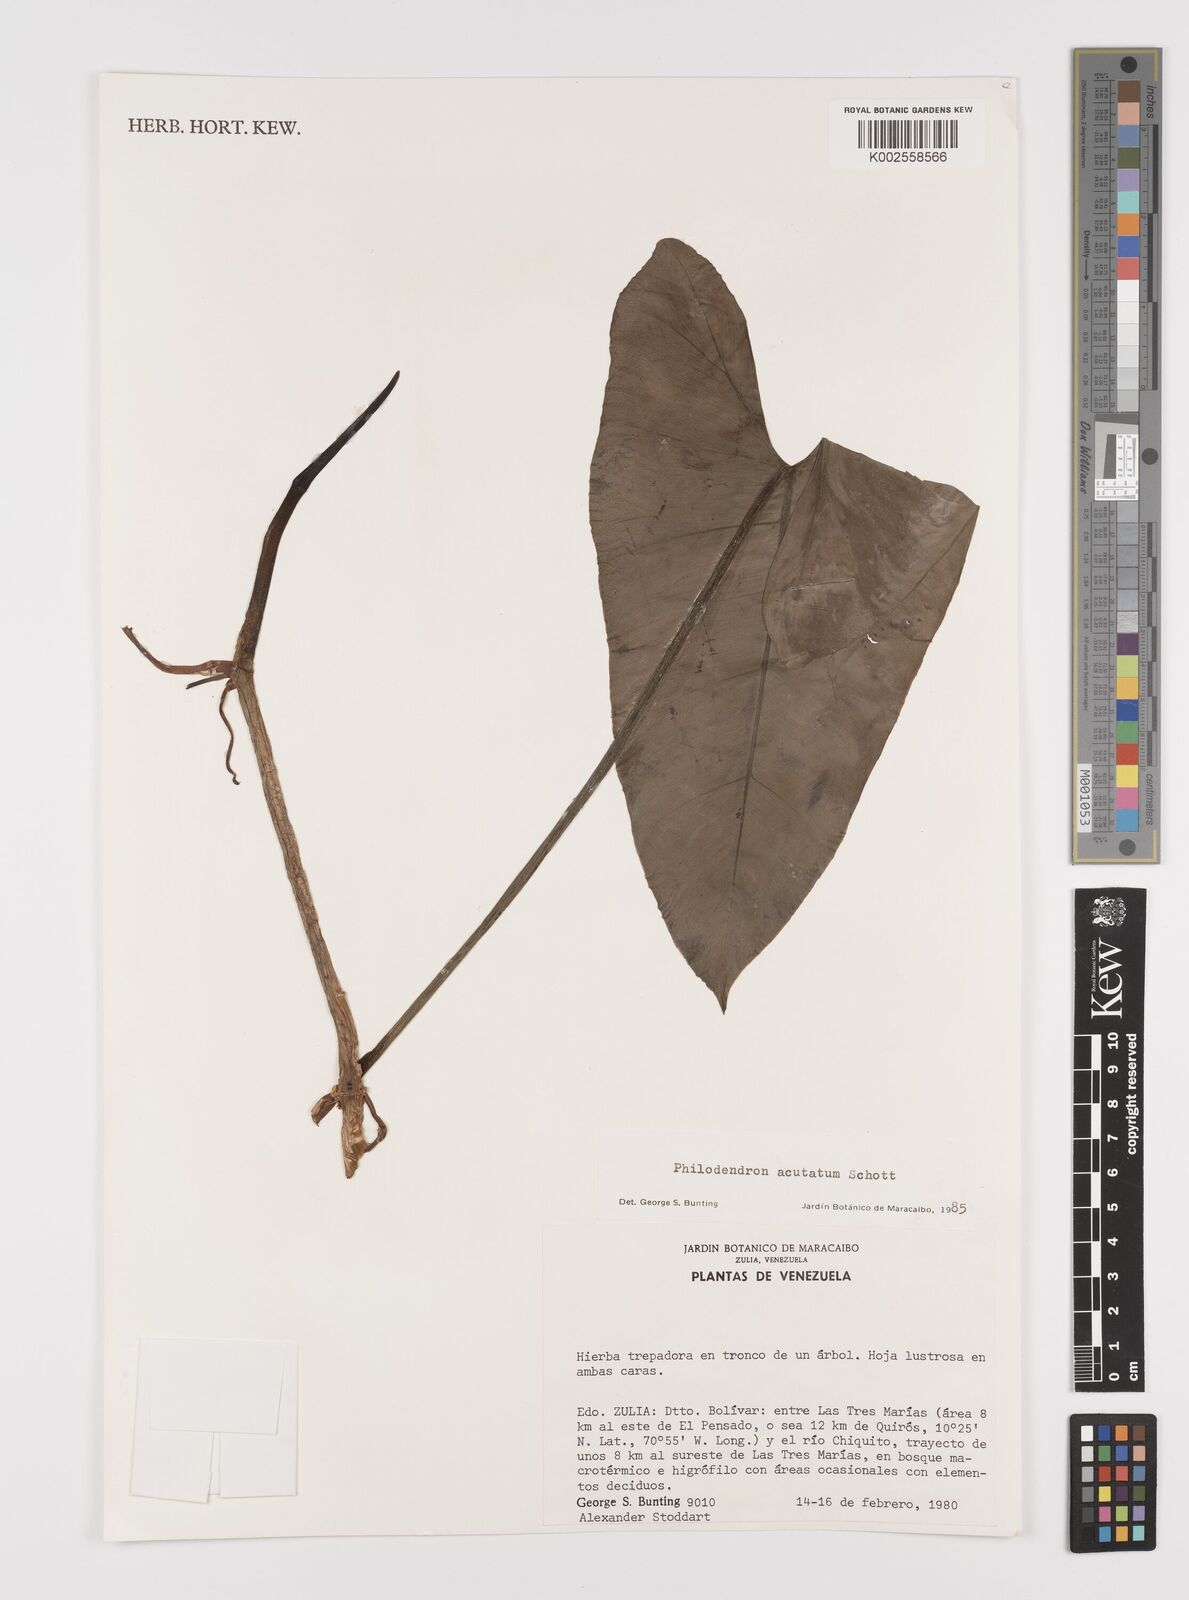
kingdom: Plantae
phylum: Tracheophyta
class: Liliopsida
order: Alismatales
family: Araceae
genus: Philodendron
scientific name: Philodendron quinquenervium
